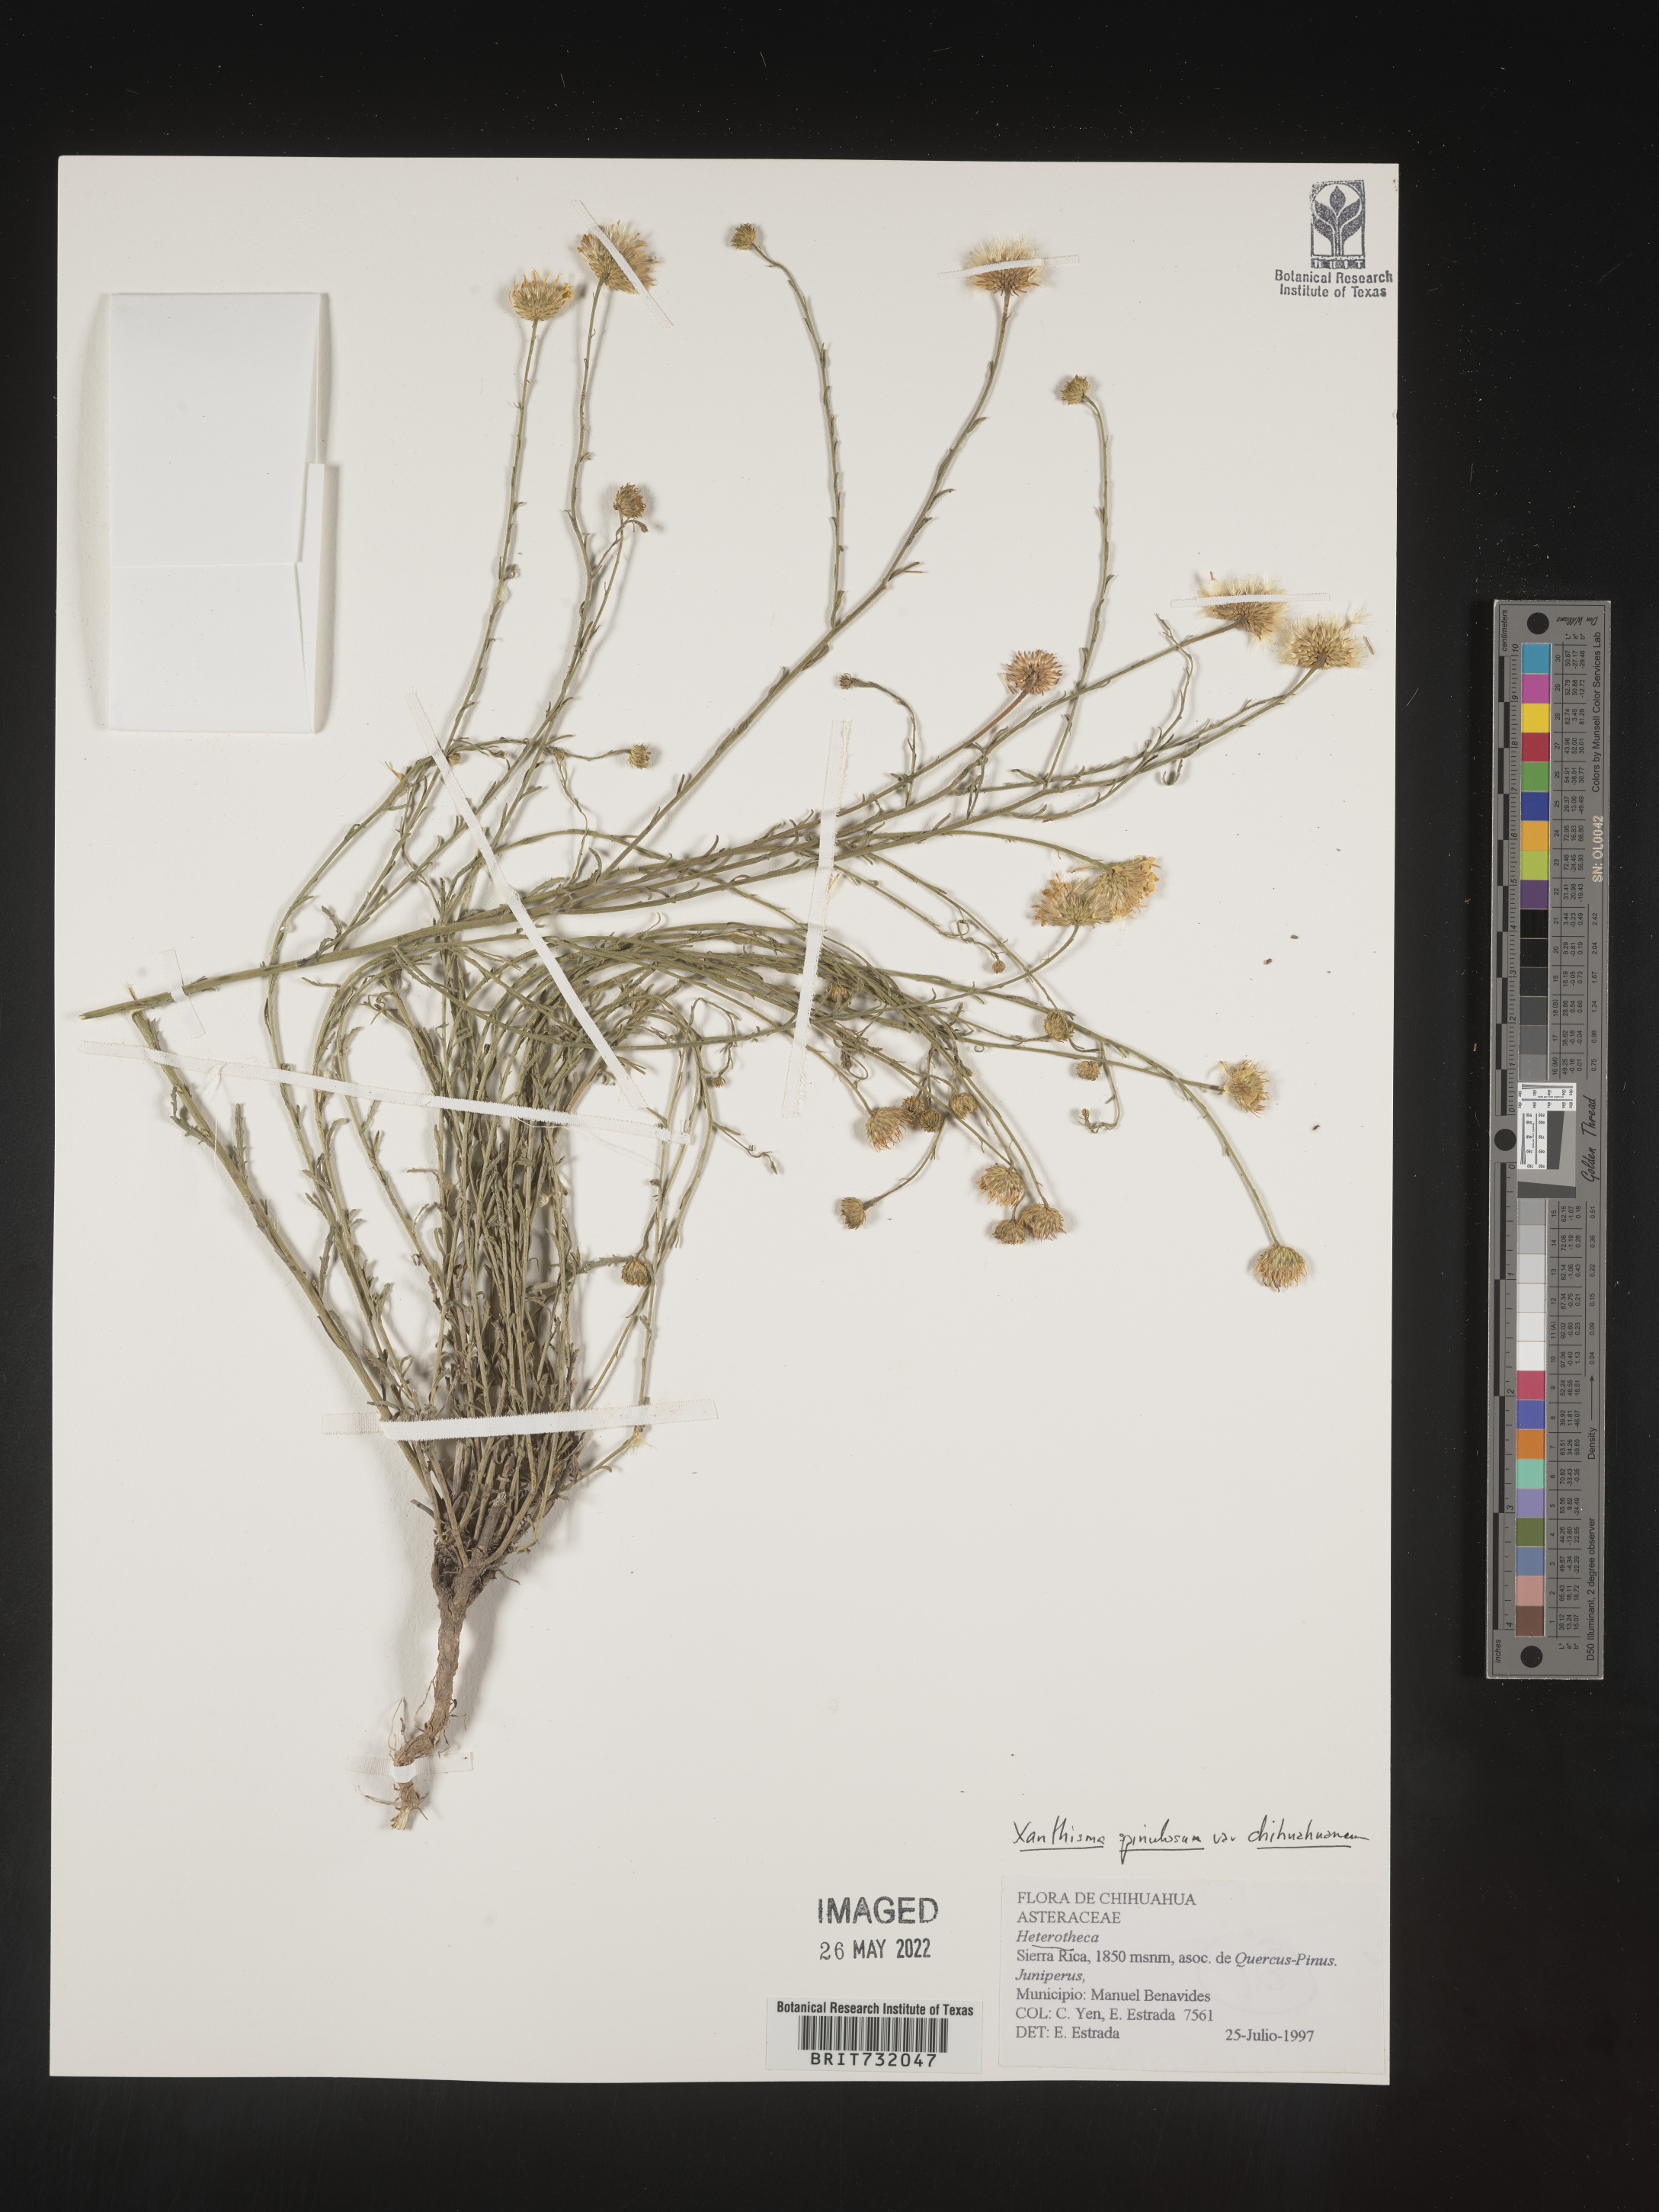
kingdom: Plantae
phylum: Tracheophyta
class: Magnoliopsida
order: Asterales
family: Asteraceae
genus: Xanthisma
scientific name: Xanthisma spinulosum
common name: Spiny goldenweed
